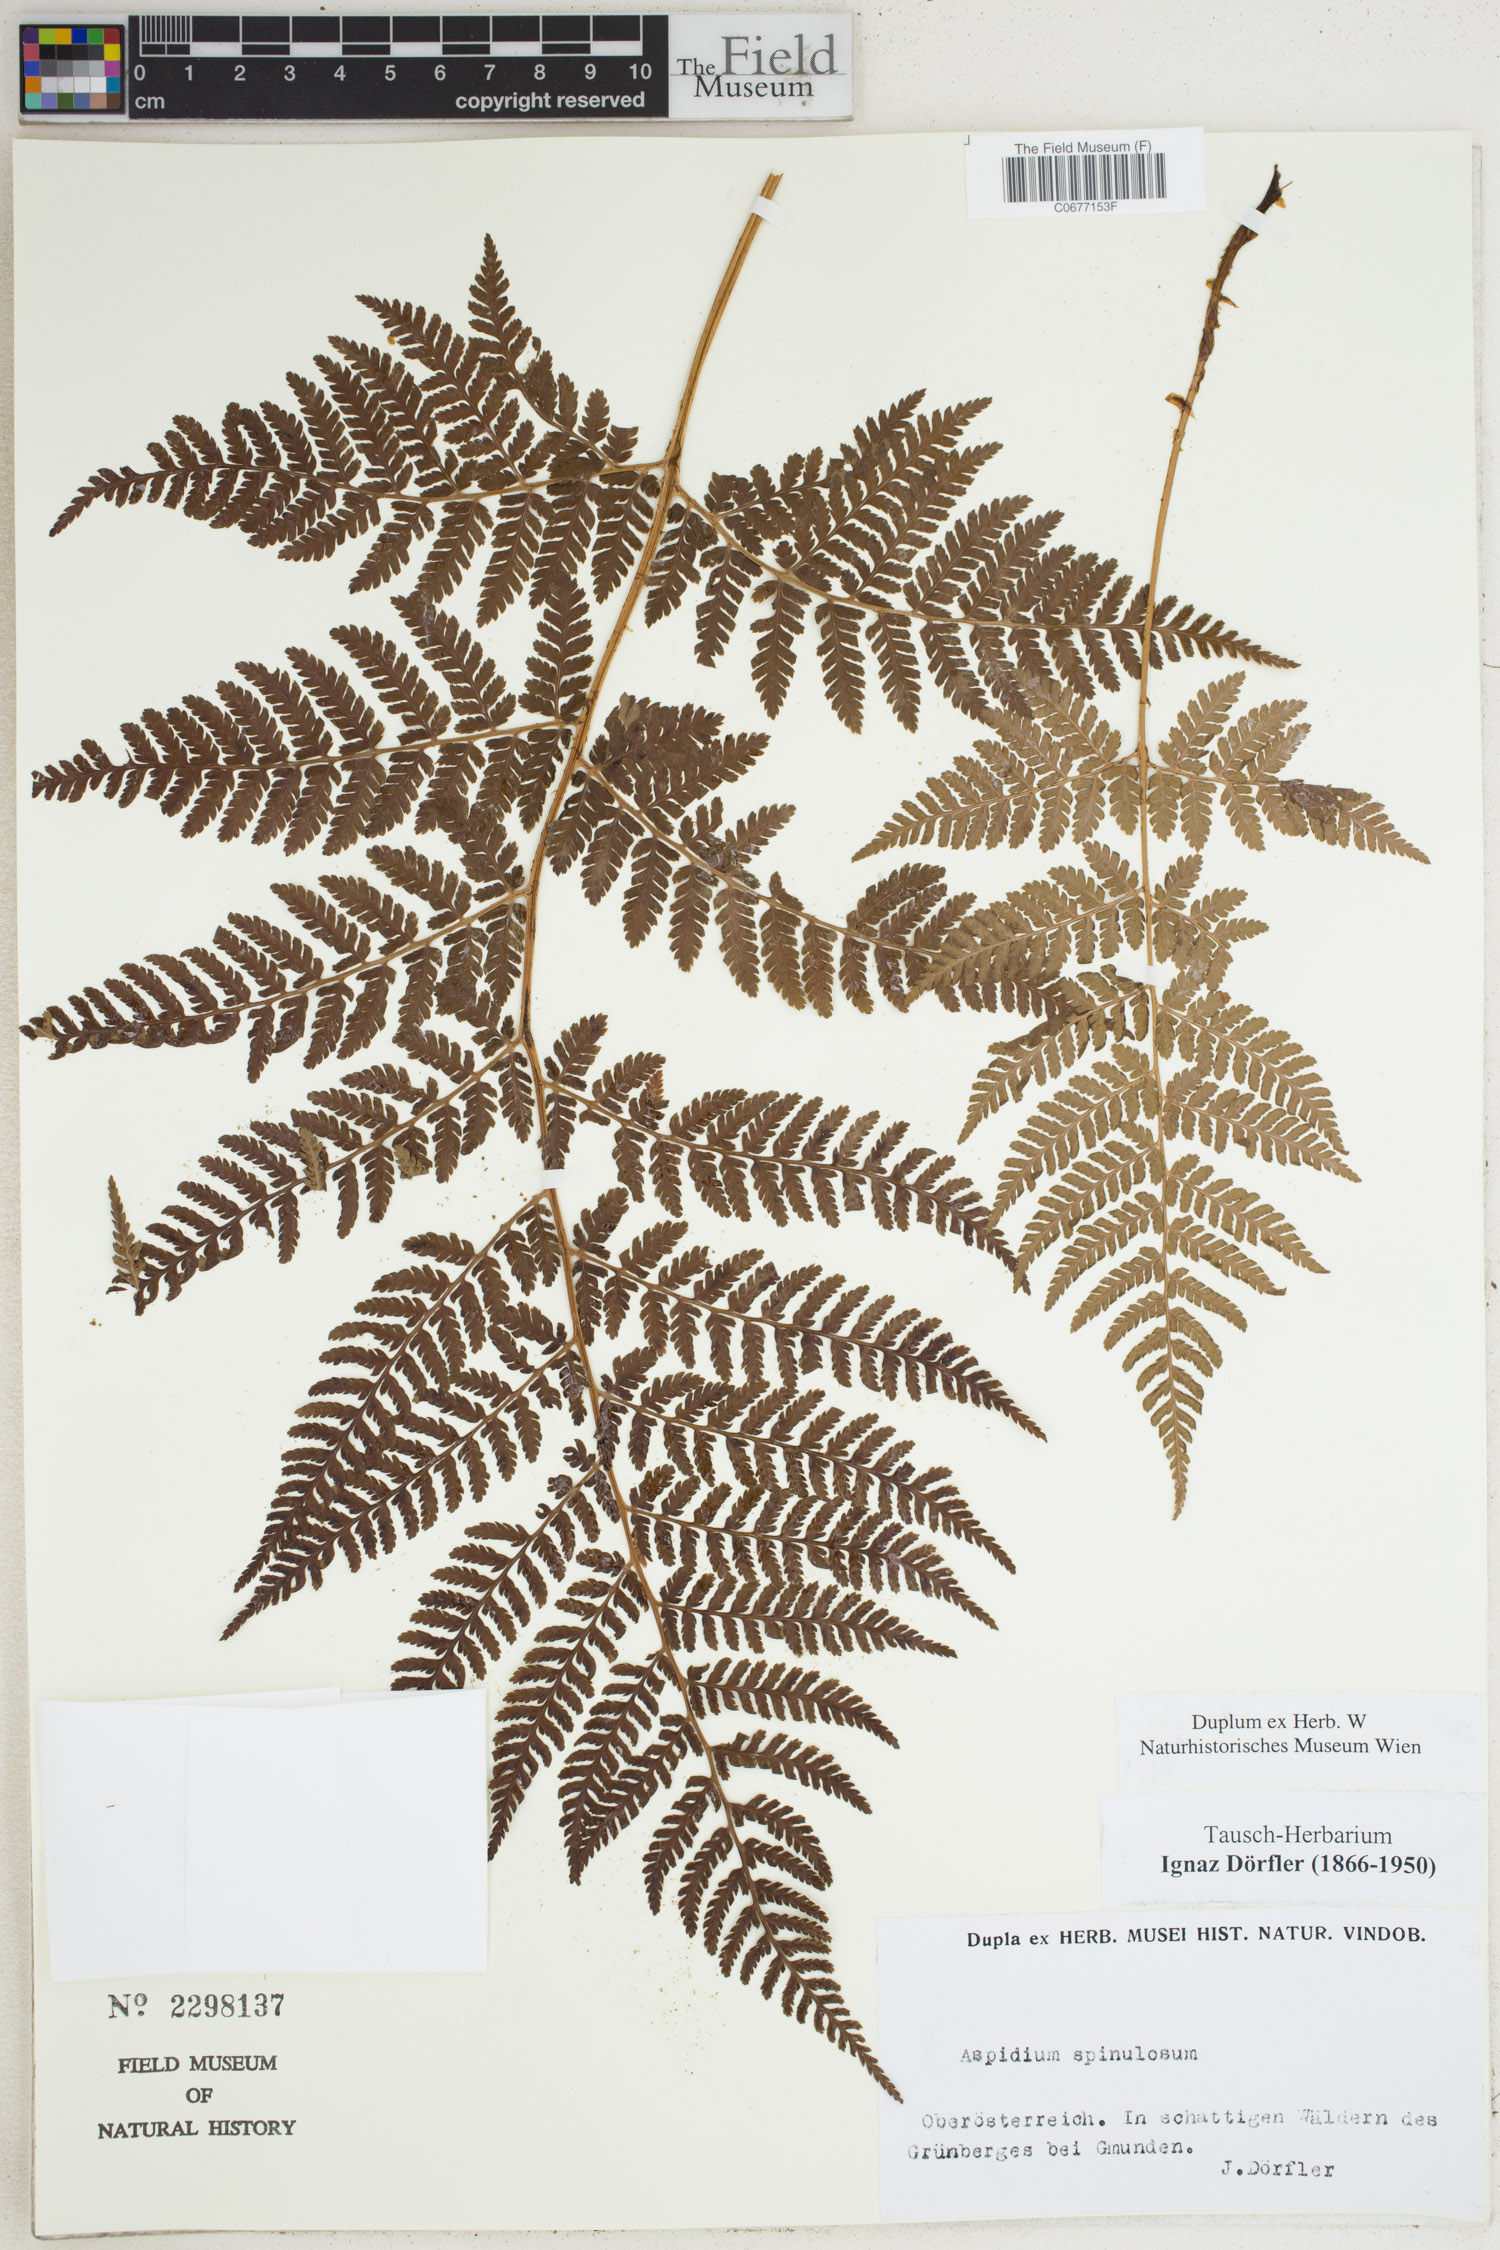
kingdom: Plantae
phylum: Tracheophyta
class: Polypodiopsida
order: Polypodiales
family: Dryopteridaceae
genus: Dryopteris
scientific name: Dryopteris carthusiana
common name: Narrow buckler-fern
